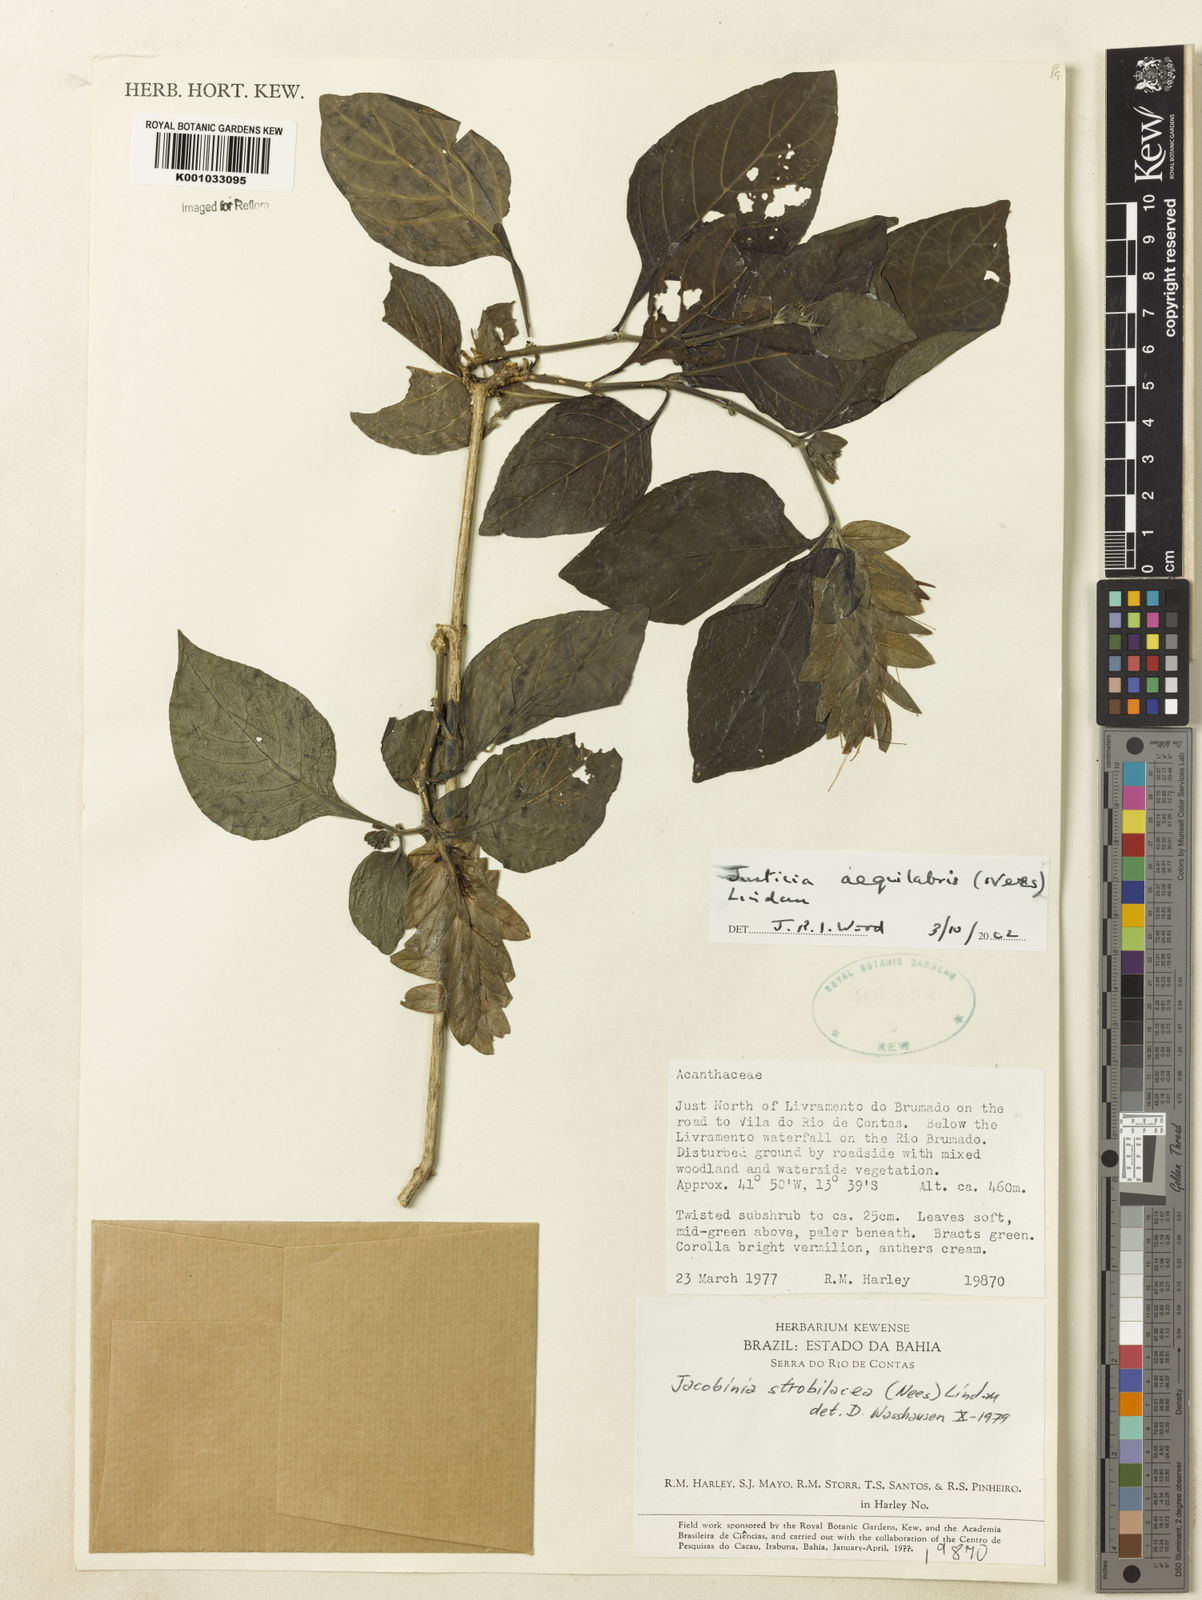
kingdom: Plantae
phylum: Tracheophyta
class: Magnoliopsida
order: Lamiales
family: Acanthaceae
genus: Justicia
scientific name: Justicia aequalis
